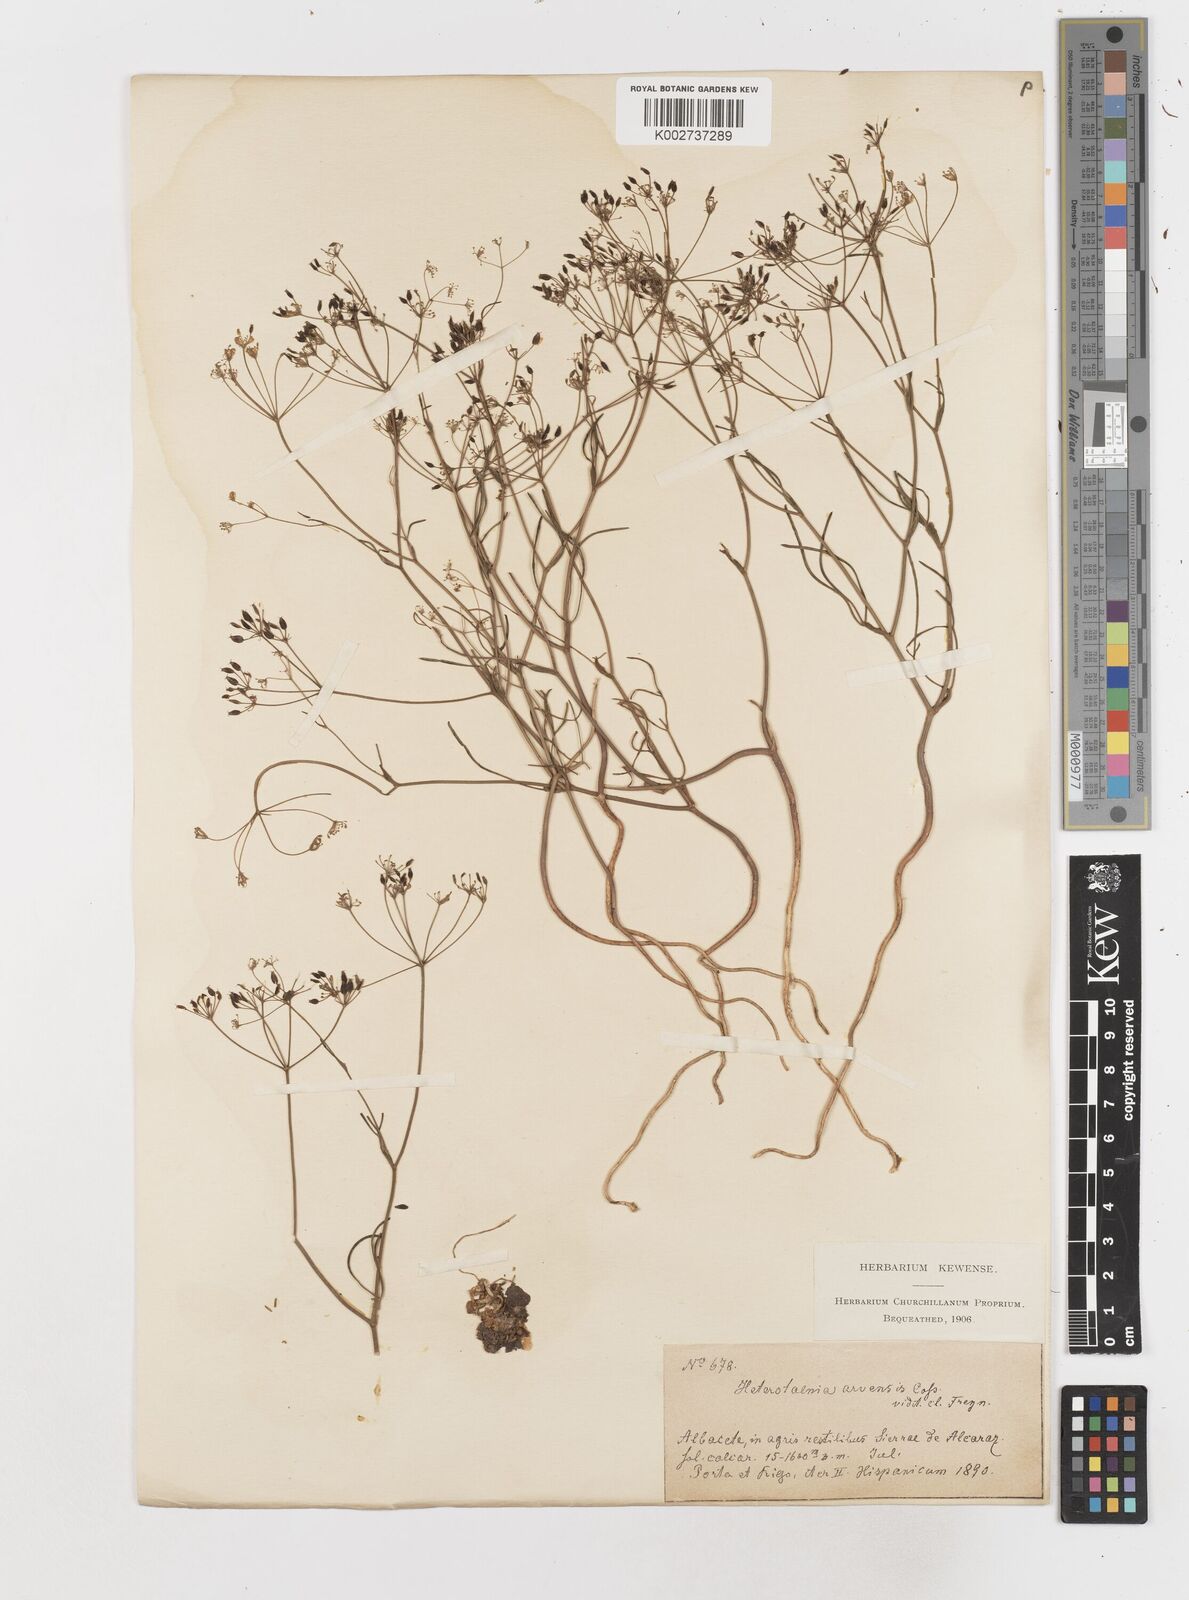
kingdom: Plantae
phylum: Tracheophyta
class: Magnoliopsida
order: Apiales
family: Apiaceae
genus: Conopodium
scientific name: Conopodium arvense
